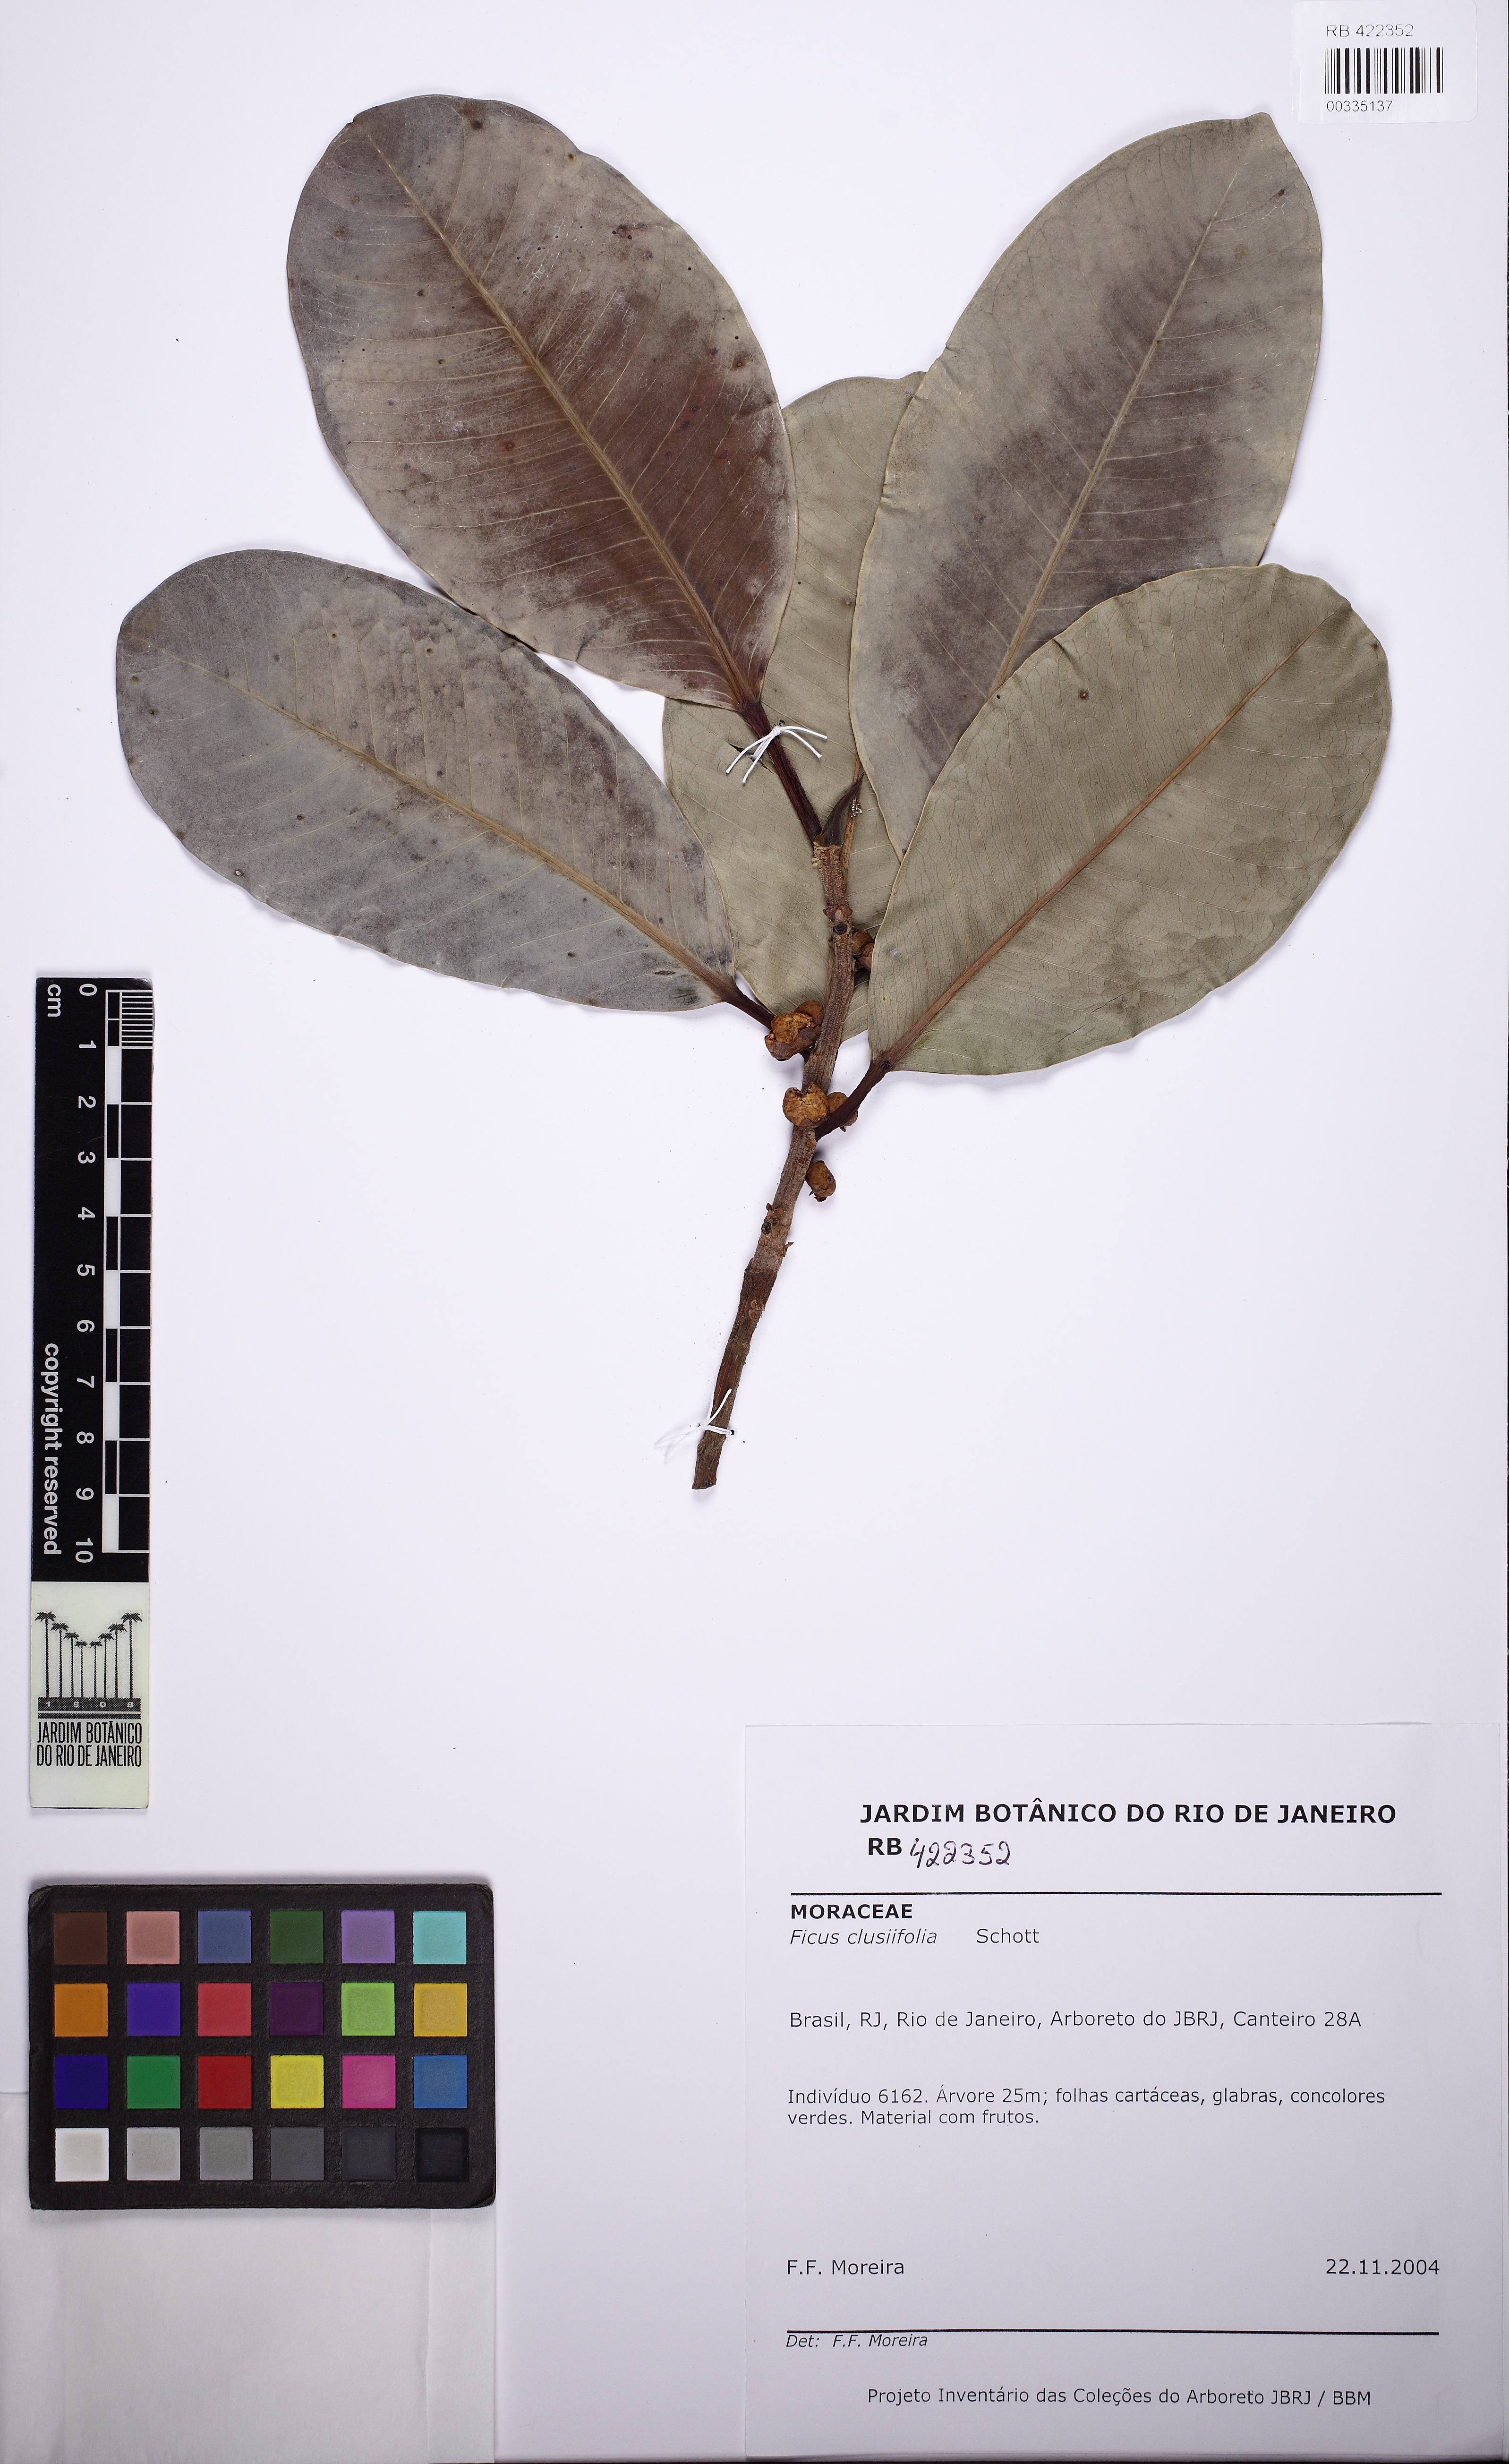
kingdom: Plantae
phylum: Tracheophyta
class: Magnoliopsida
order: Rosales
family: Moraceae
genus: Ficus
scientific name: Ficus americana
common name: Jamaican cherry fig
